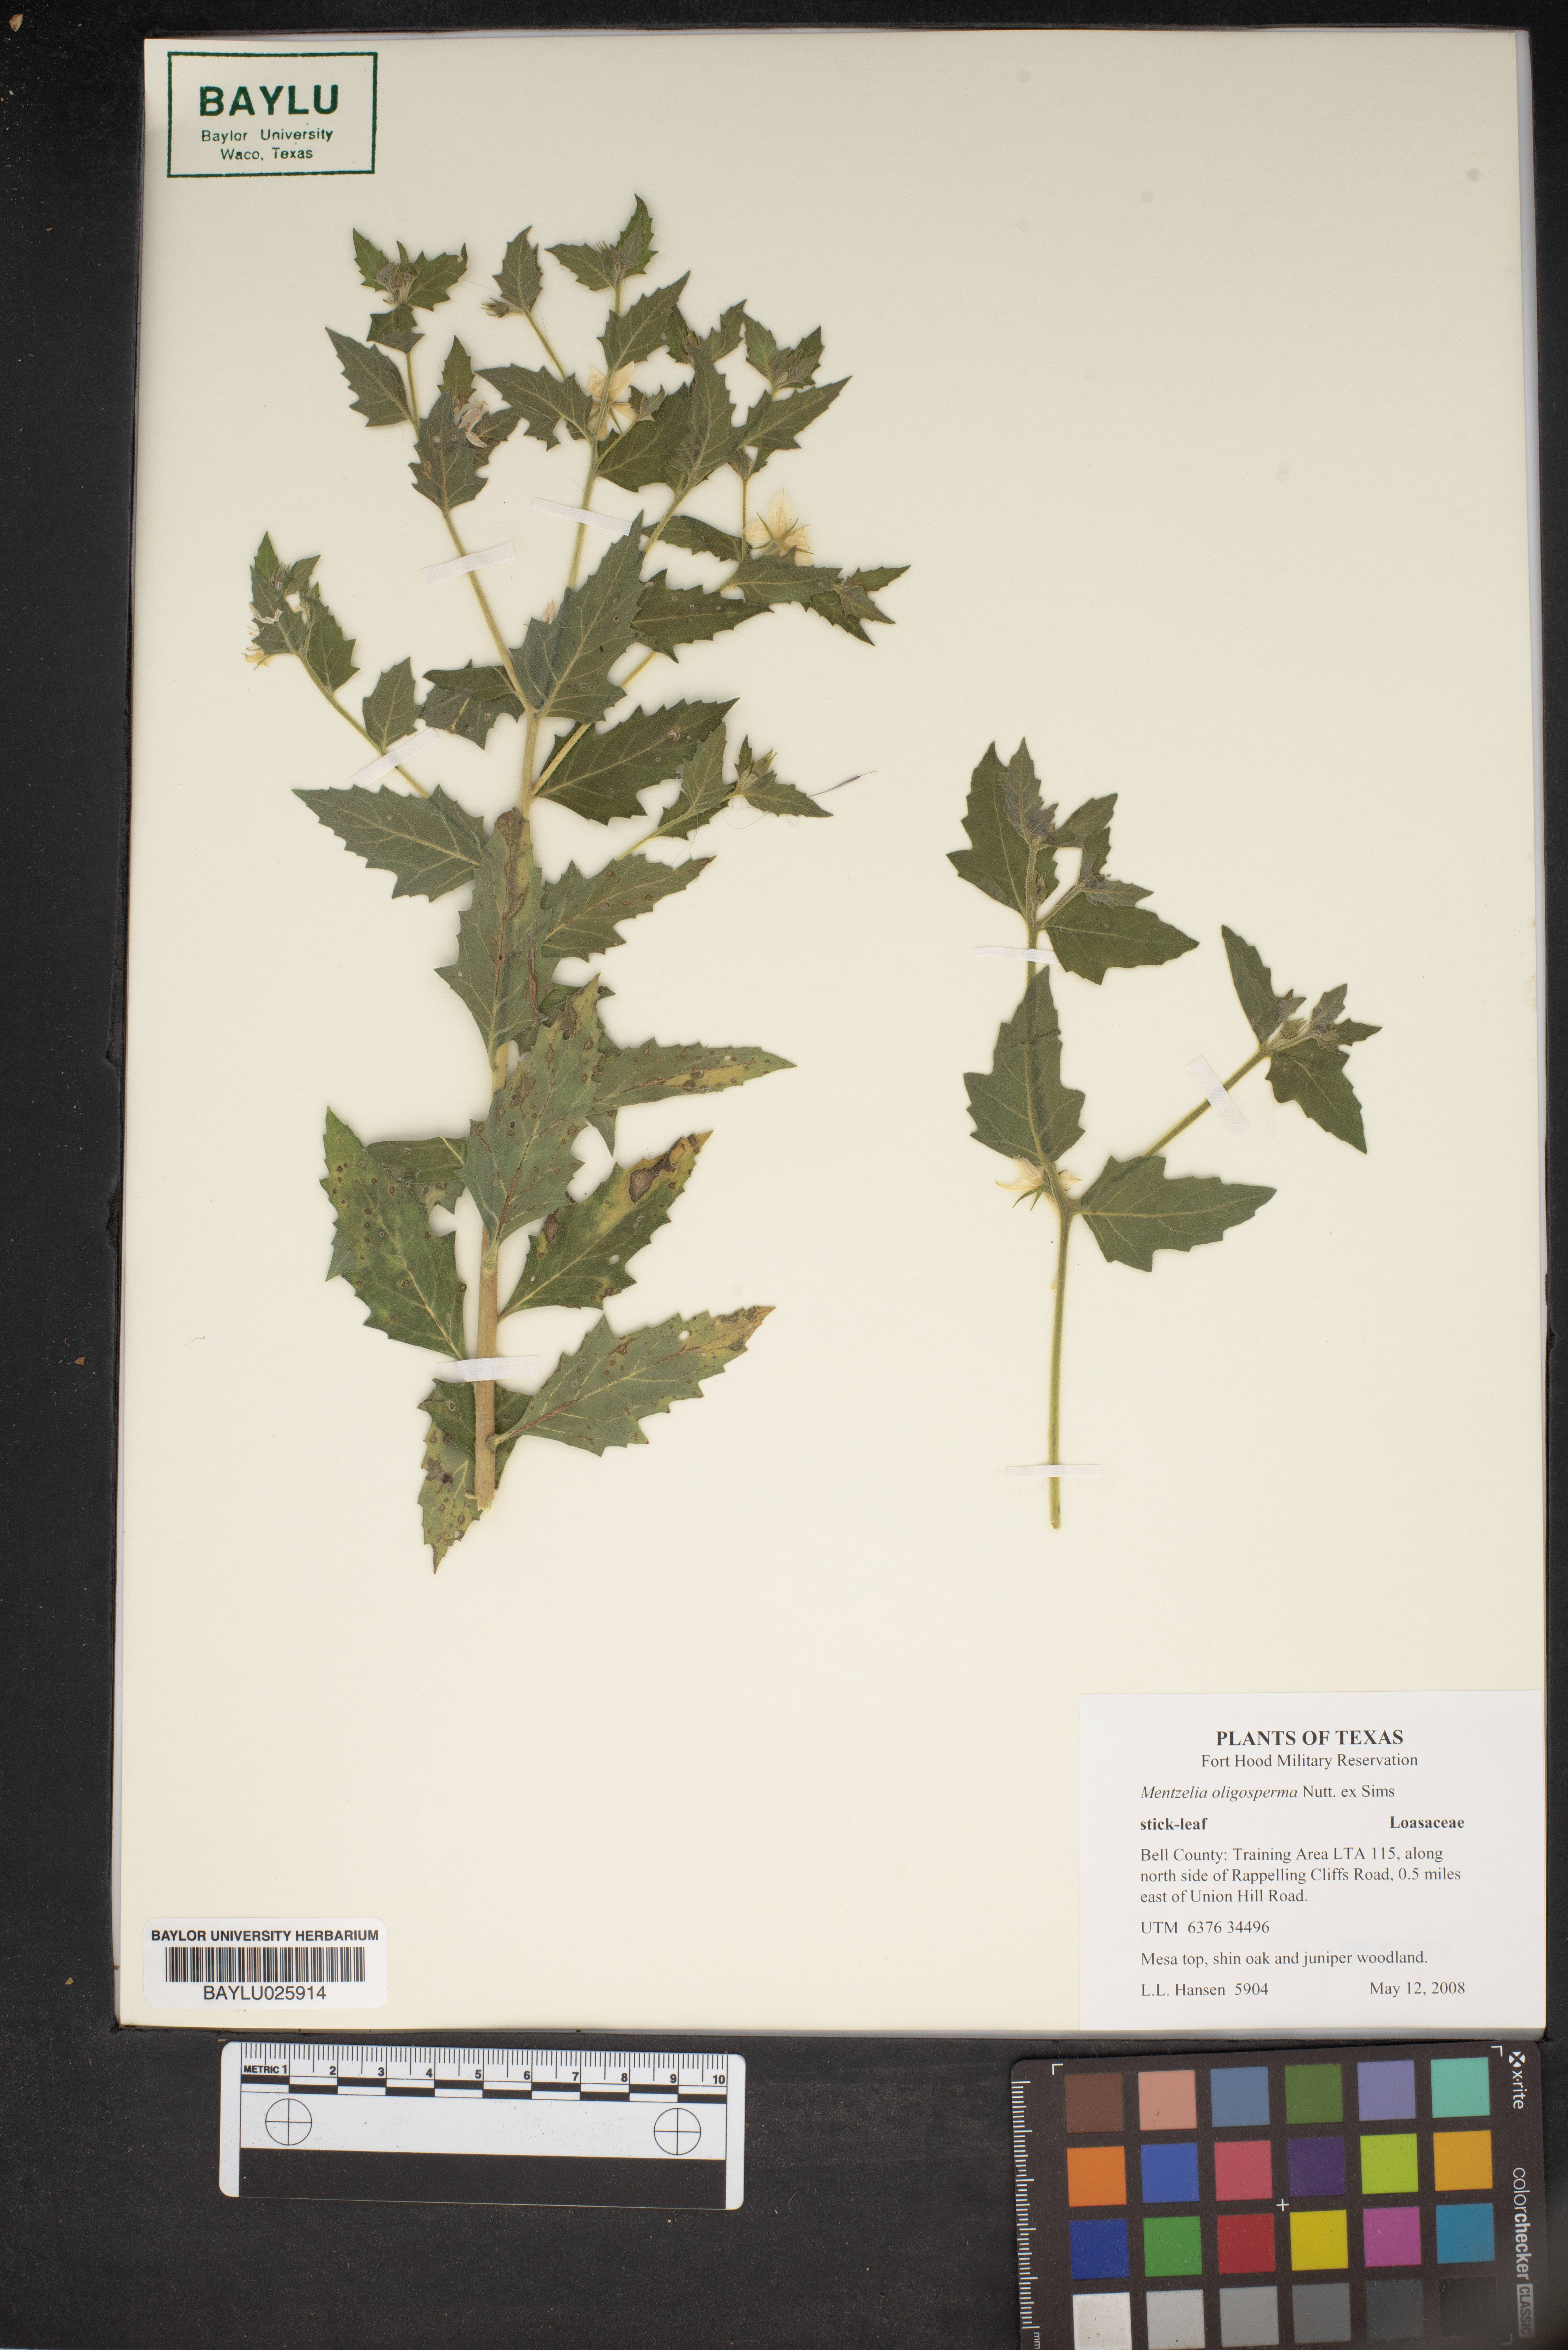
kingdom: Plantae
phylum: Tracheophyta
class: Magnoliopsida
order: Cornales
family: Loasaceae
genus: Mentzelia
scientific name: Mentzelia oligosperma
